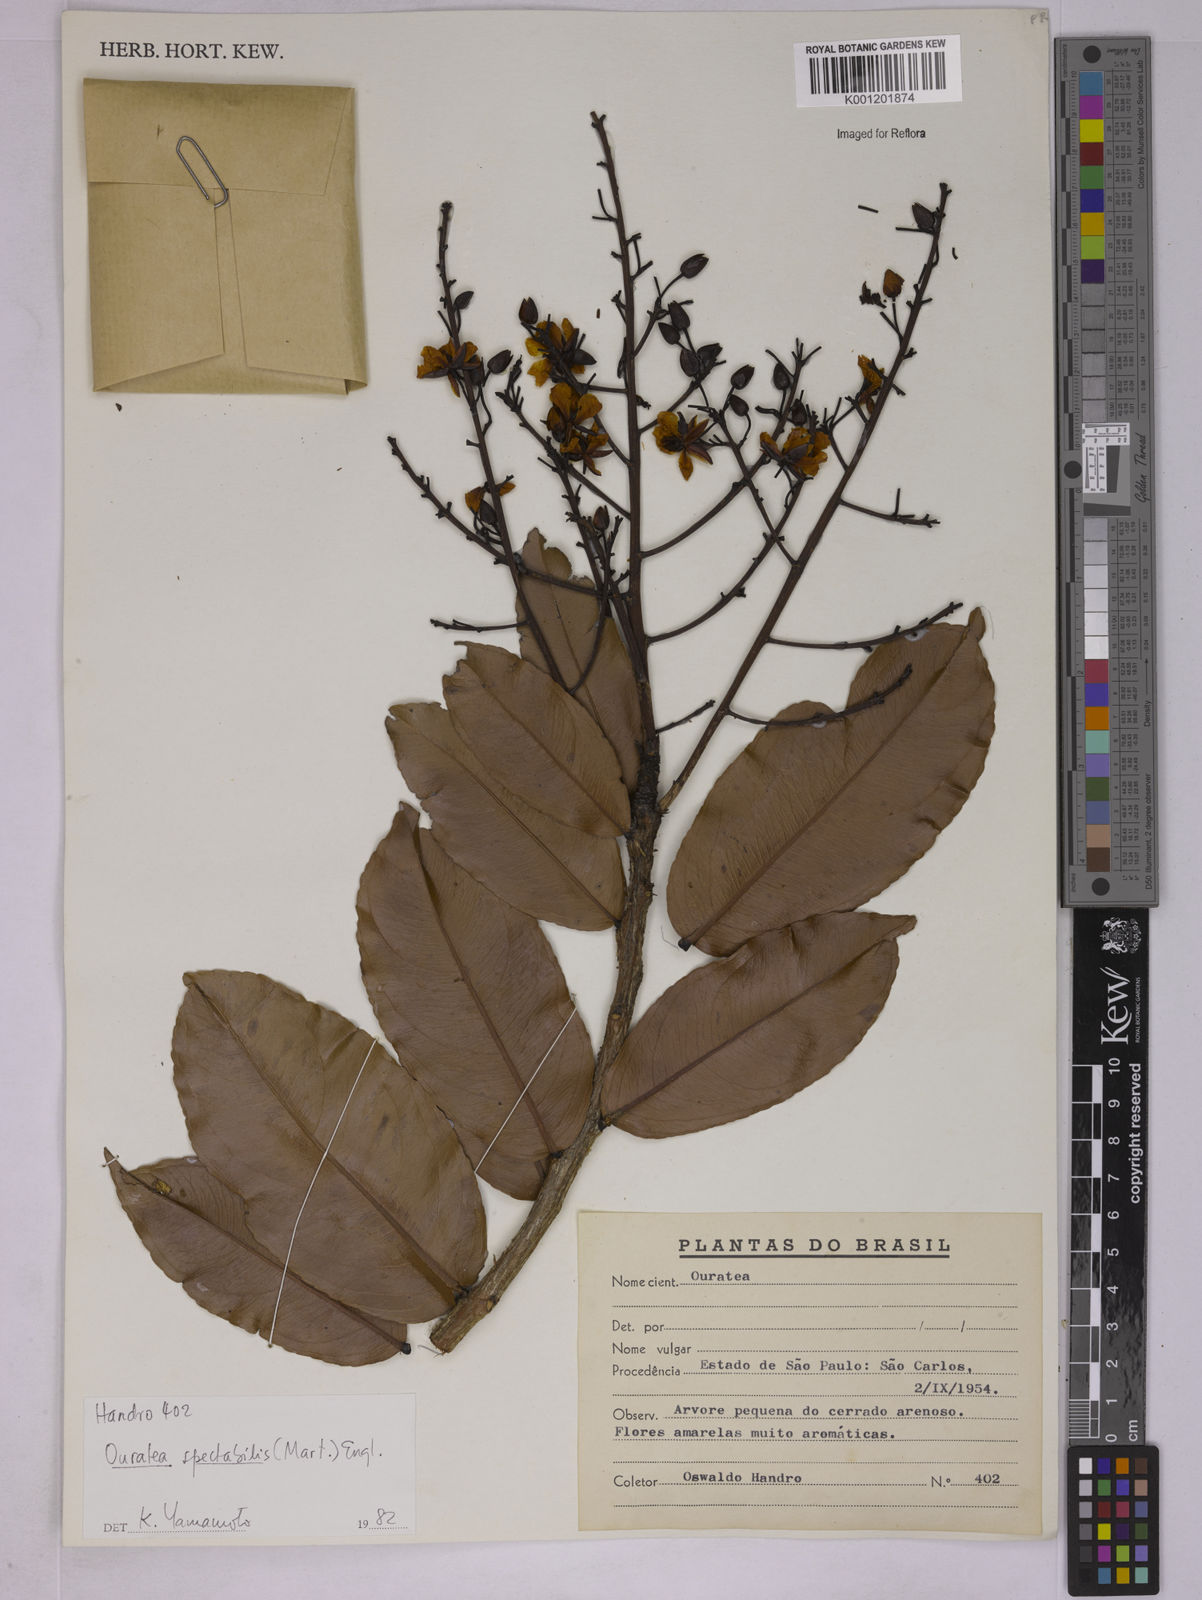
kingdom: Plantae
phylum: Tracheophyta
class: Magnoliopsida
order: Malpighiales
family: Ochnaceae
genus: Ouratea
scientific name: Ouratea spectabilis
